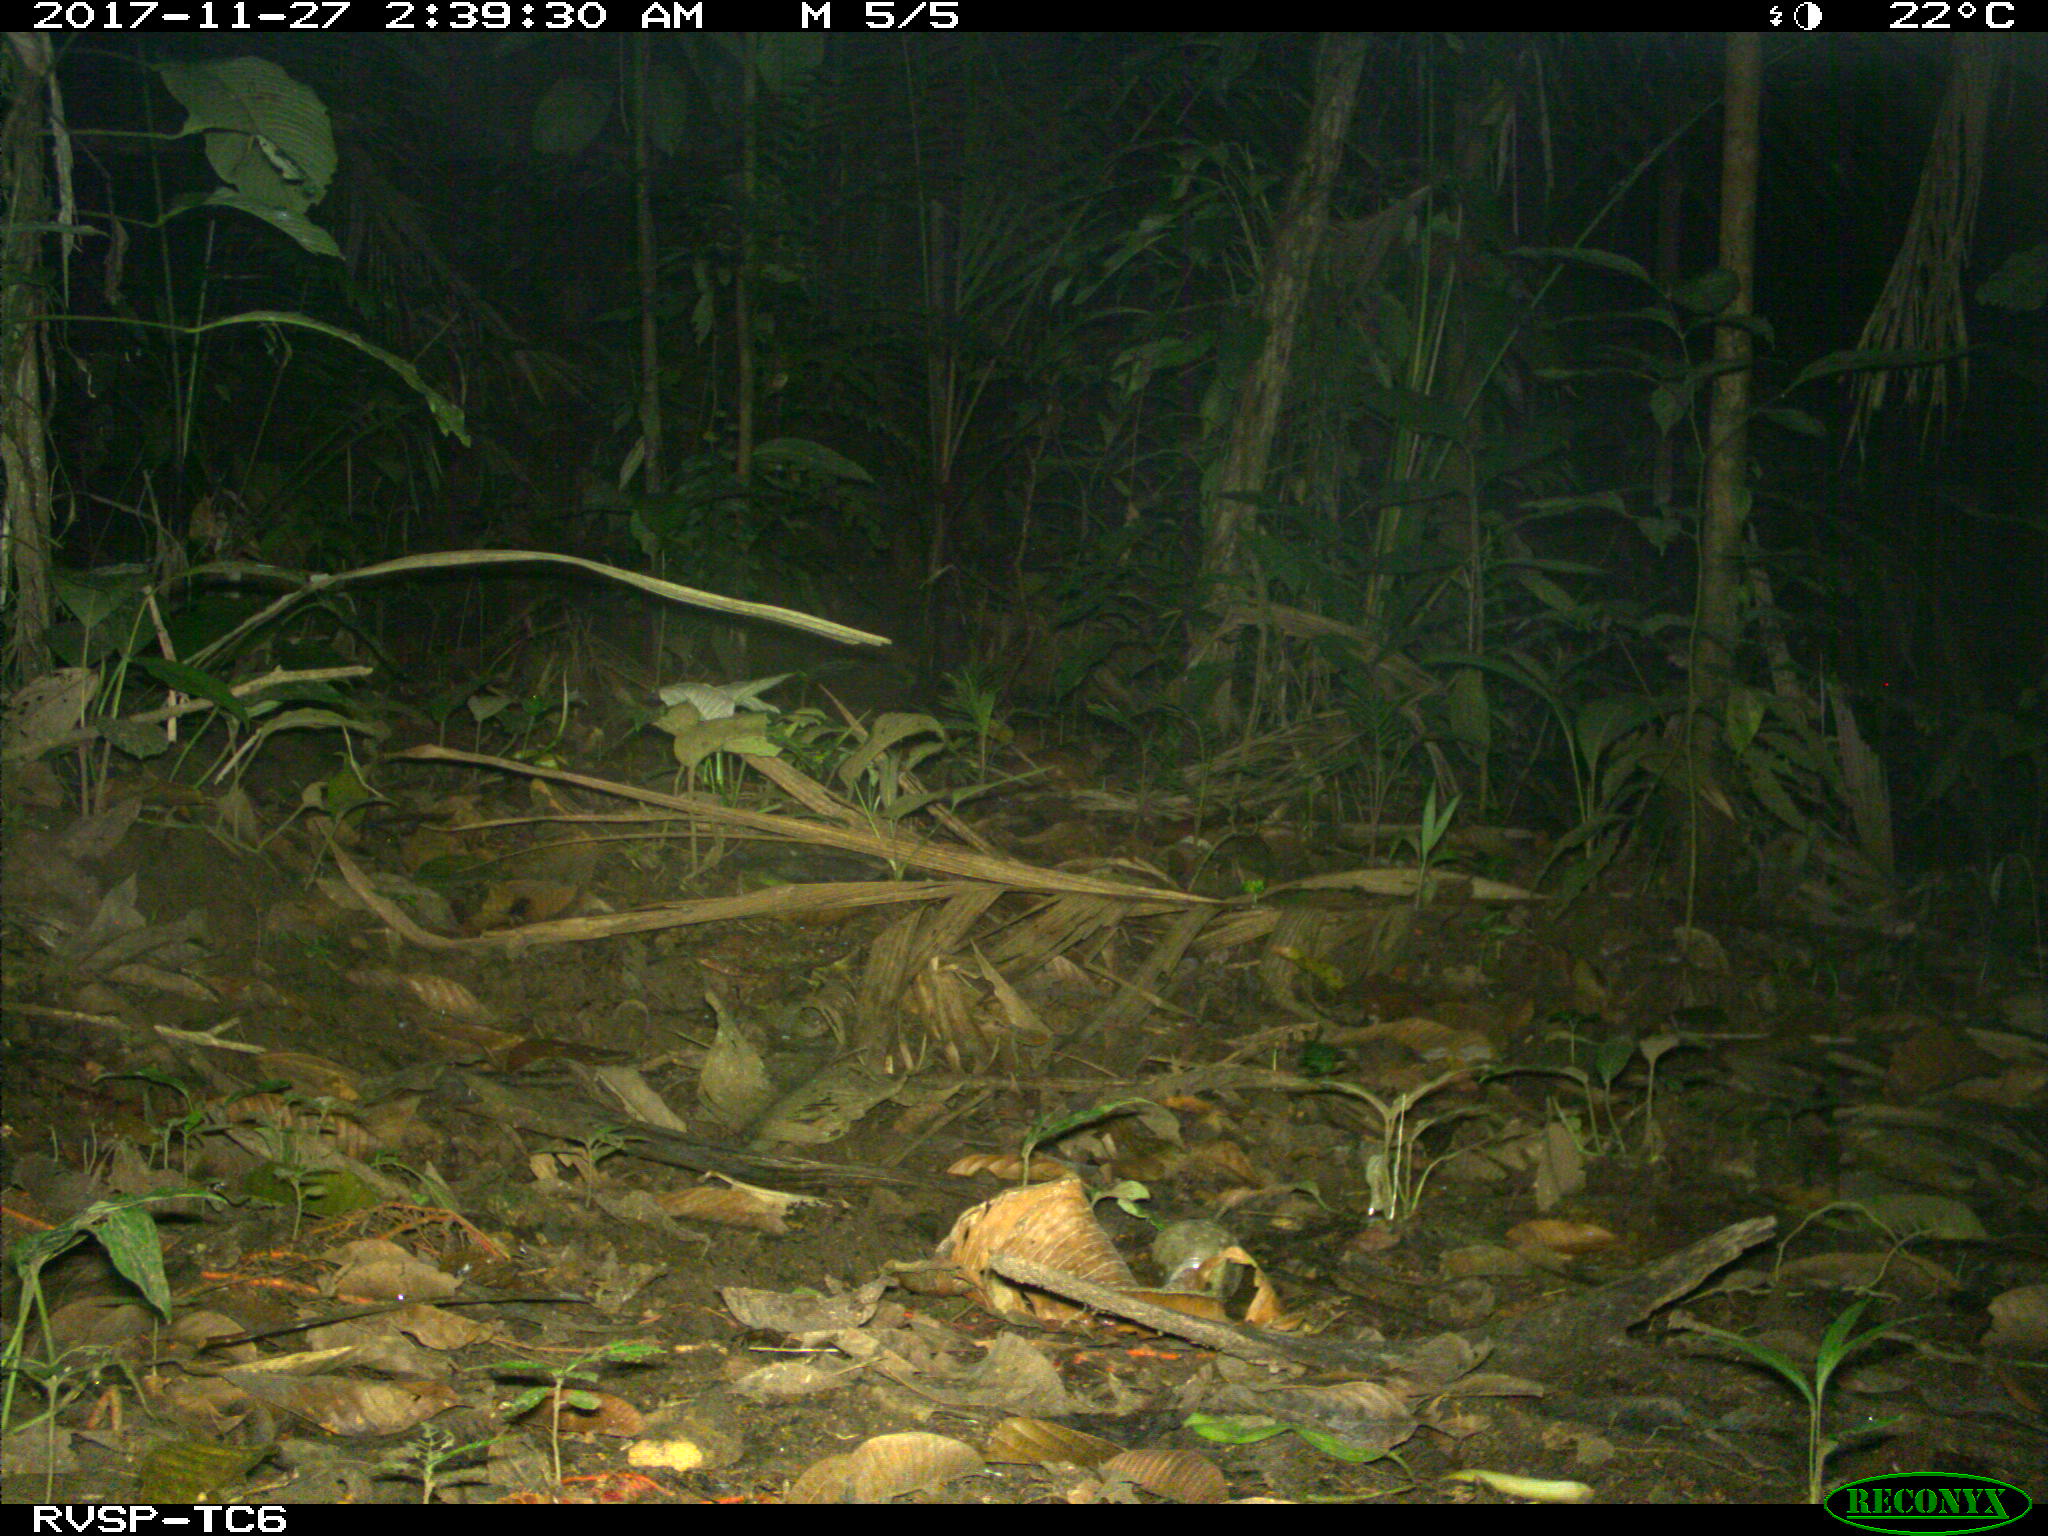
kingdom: Animalia
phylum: Chordata
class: Mammalia
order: Rodentia
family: Echimyidae
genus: Proechimys
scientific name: Proechimys
